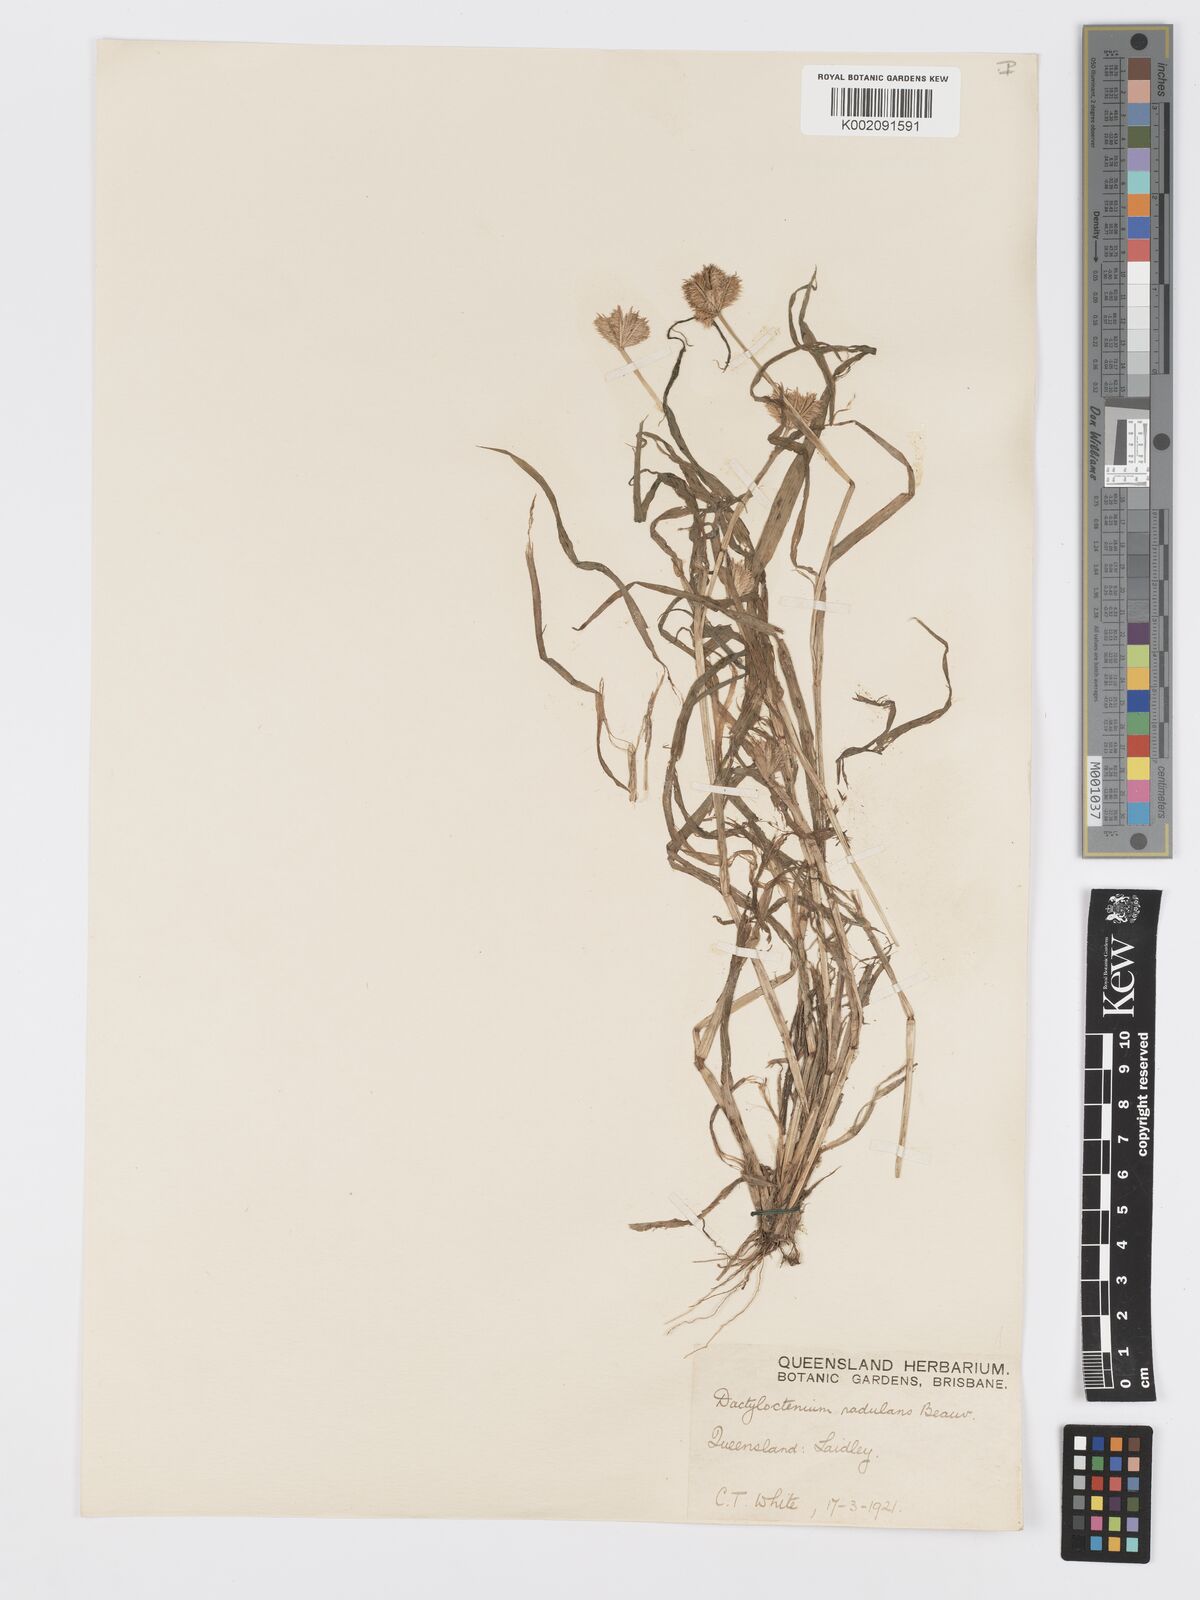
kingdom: Plantae
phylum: Tracheophyta
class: Liliopsida
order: Poales
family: Poaceae
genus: Dactyloctenium
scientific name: Dactyloctenium radulans
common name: Button-grass
